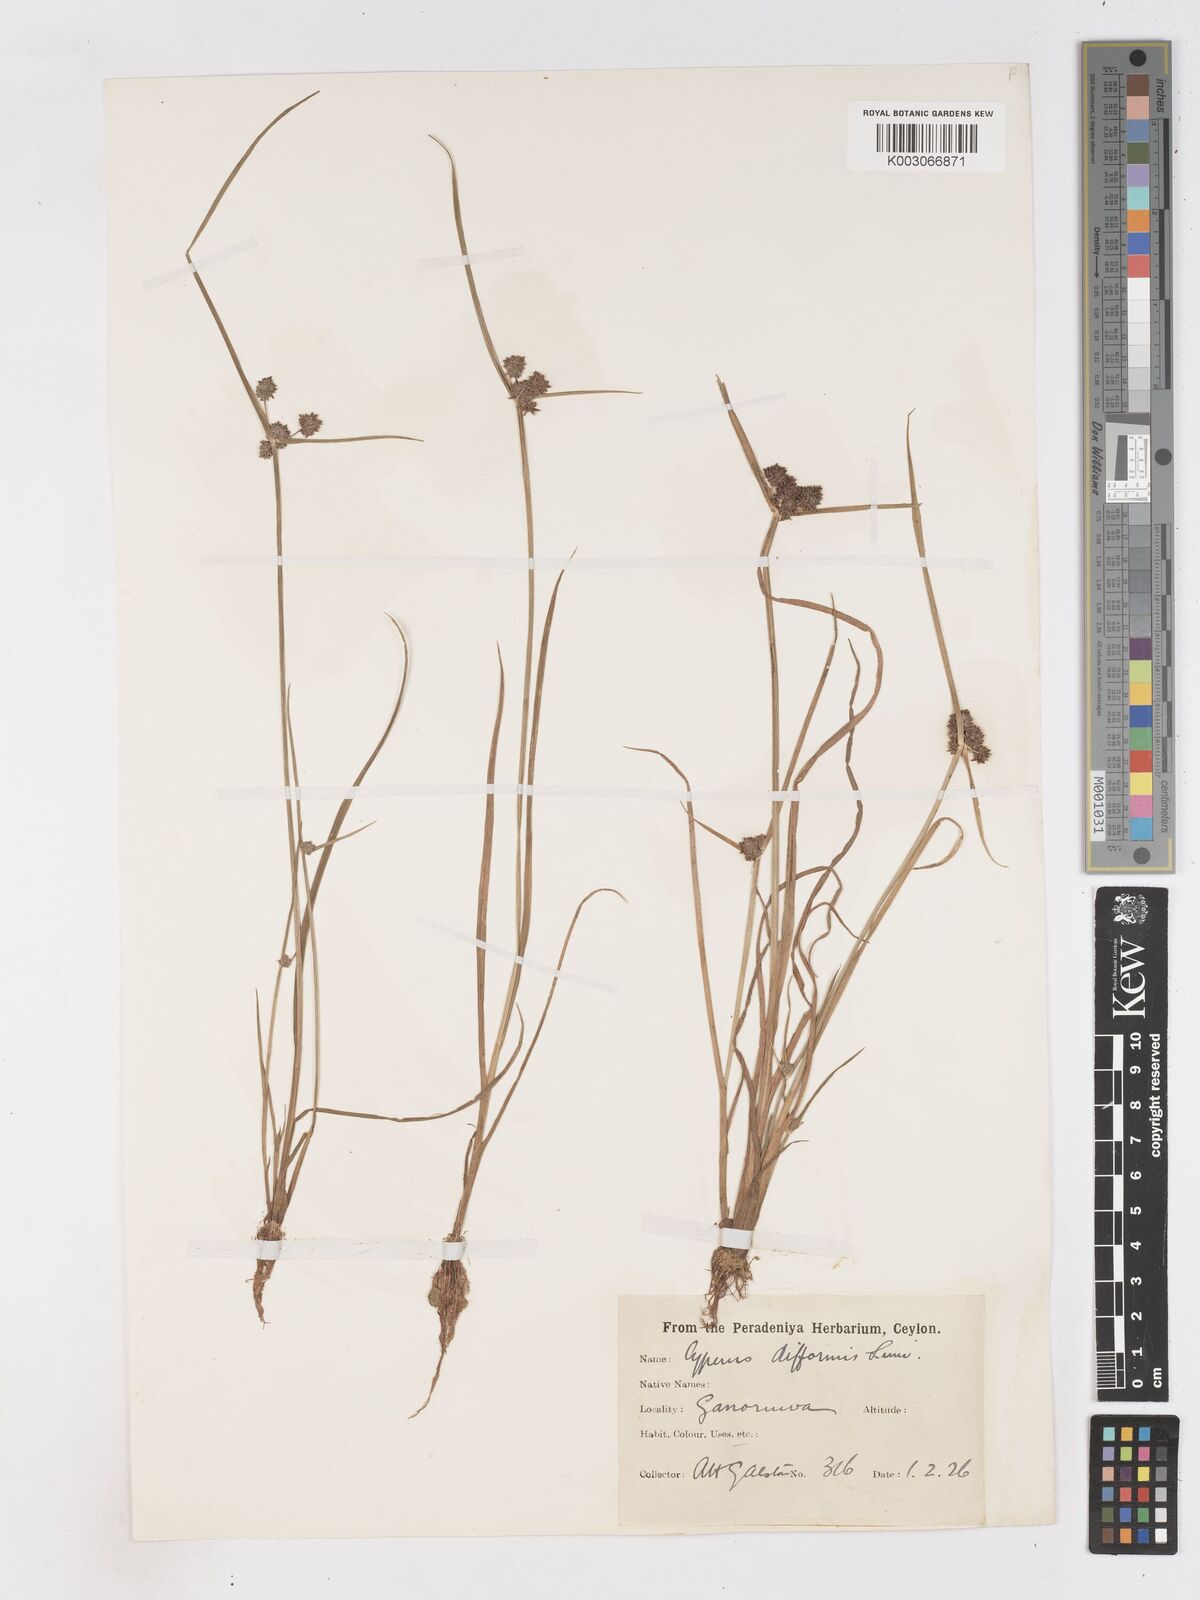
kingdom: Plantae
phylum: Tracheophyta
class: Liliopsida
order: Poales
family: Cyperaceae
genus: Cyperus
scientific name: Cyperus difformis
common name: Variable flatsedge
